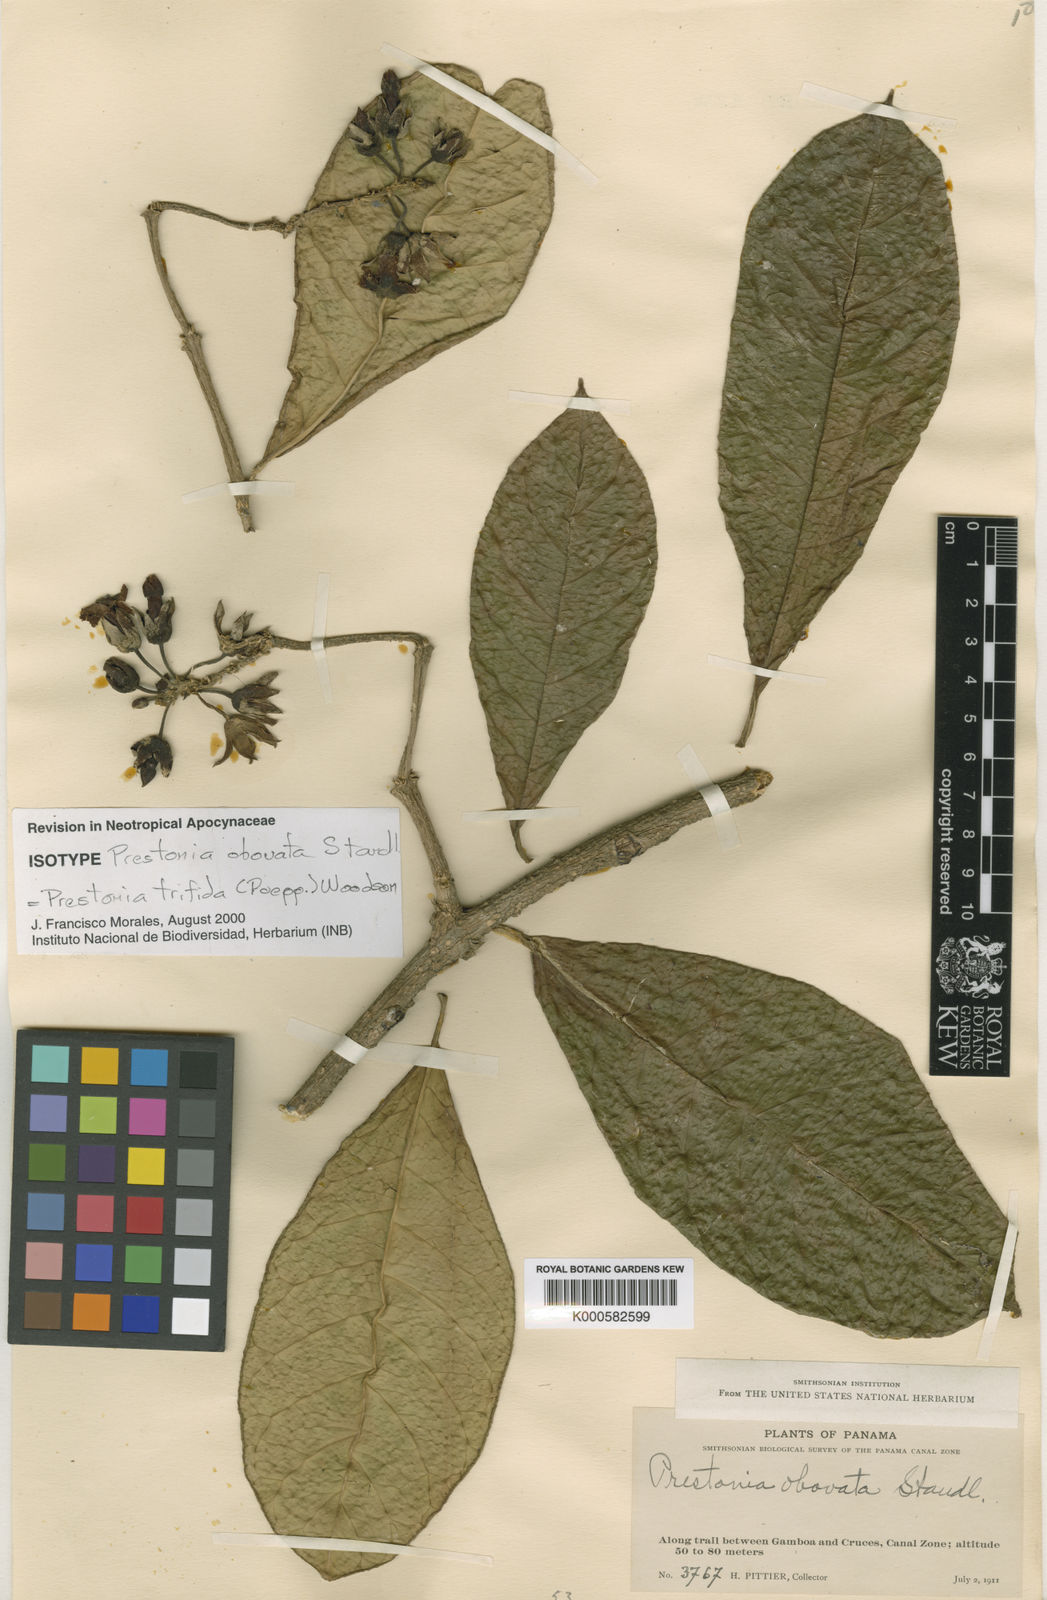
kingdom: Plantae
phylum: Tracheophyta
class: Magnoliopsida
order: Gentianales
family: Apocynaceae
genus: Prestonia
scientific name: Prestonia trifida
